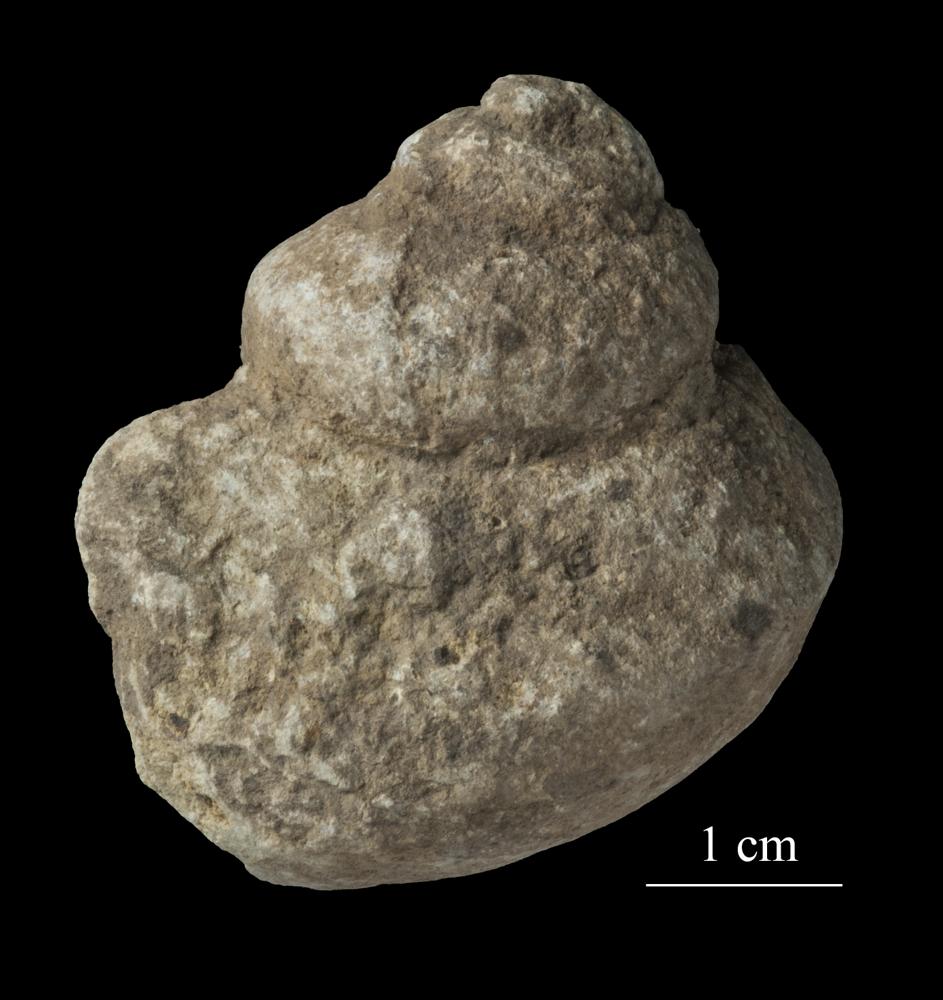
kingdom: Animalia
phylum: Mollusca
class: Gastropoda
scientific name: Gastropoda
